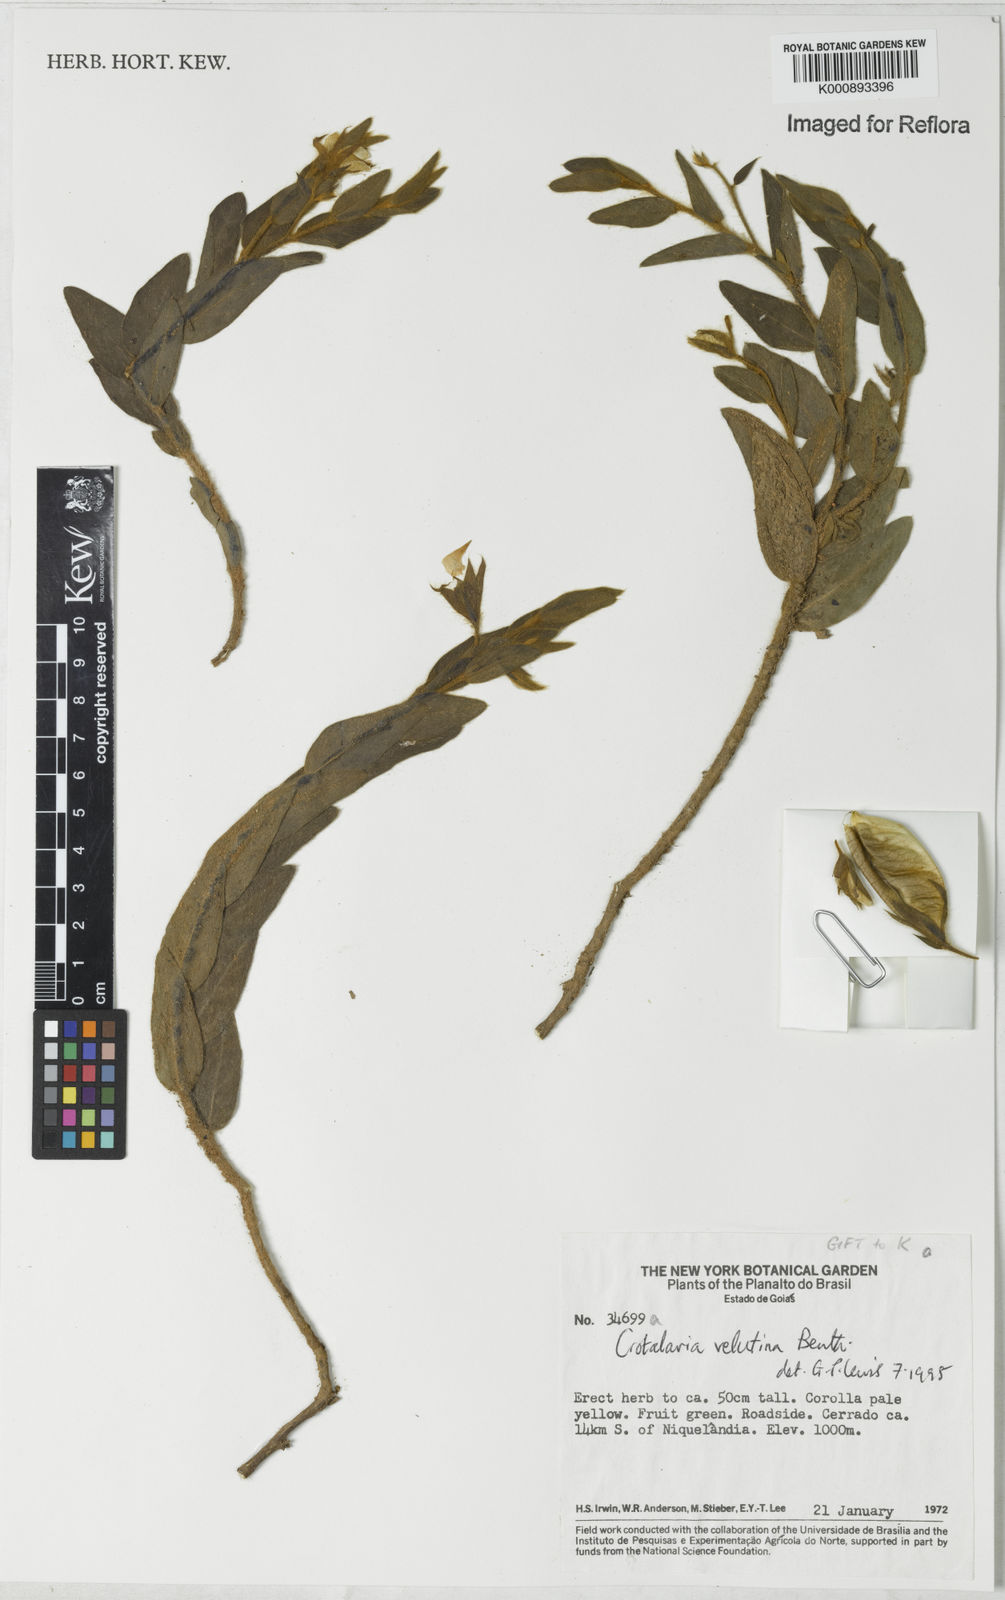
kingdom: Plantae
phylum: Tracheophyta
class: Magnoliopsida
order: Fabales
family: Fabaceae
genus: Crotalaria
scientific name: Crotalaria velutina
